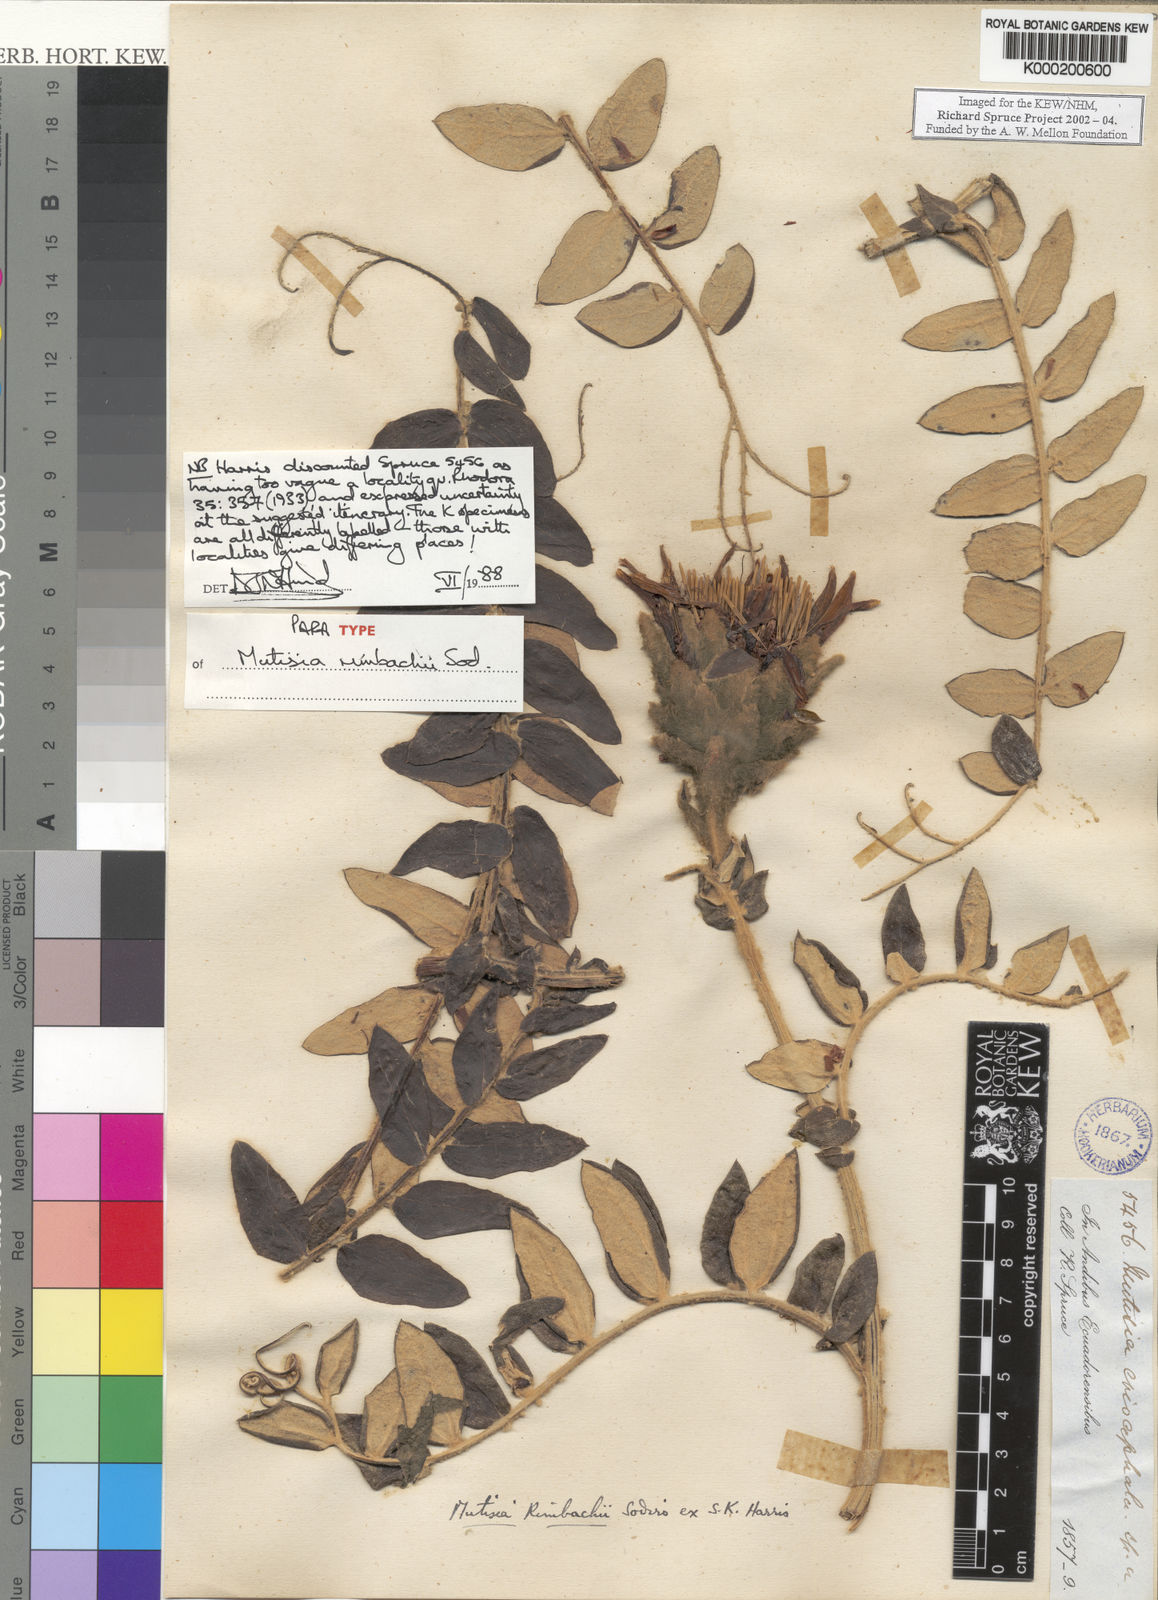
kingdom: Plantae
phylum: Tracheophyta
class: Magnoliopsida
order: Asterales
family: Asteraceae
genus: Mutisia
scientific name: Mutisia
